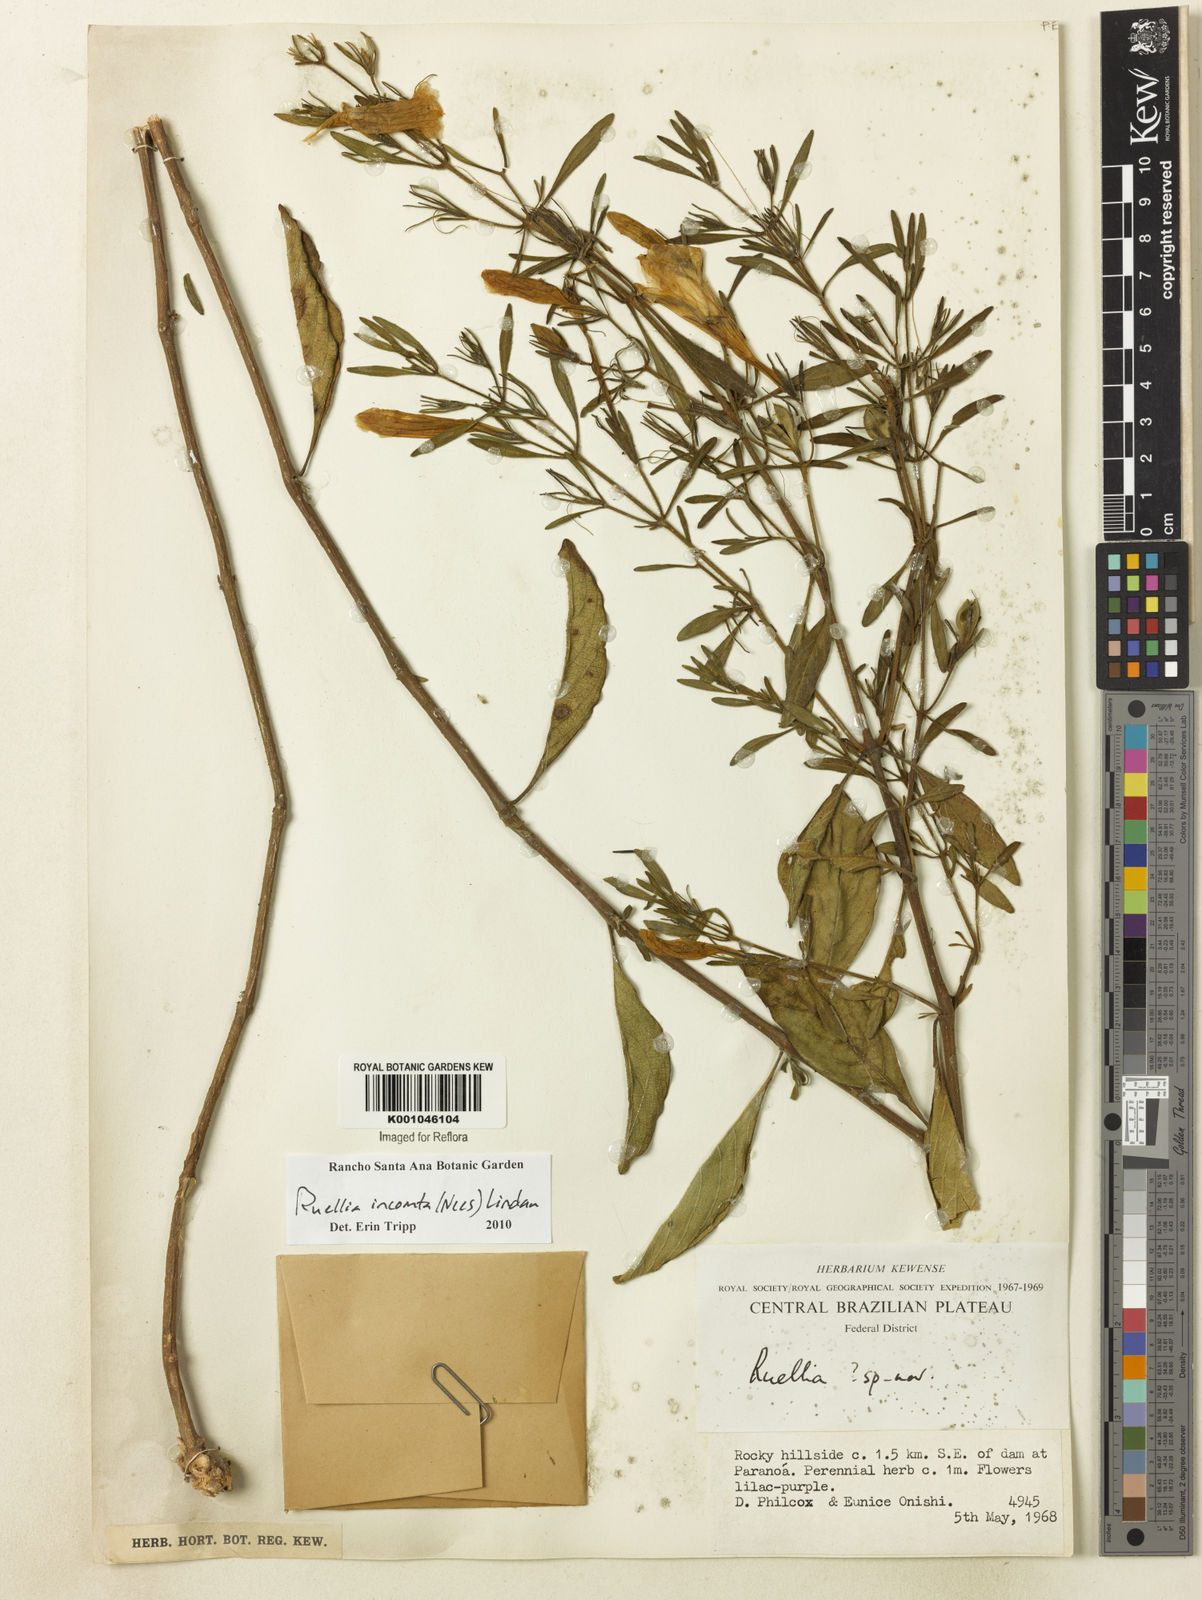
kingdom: Plantae
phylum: Tracheophyta
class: Magnoliopsida
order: Lamiales
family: Acanthaceae
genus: Ruellia
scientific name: Ruellia
